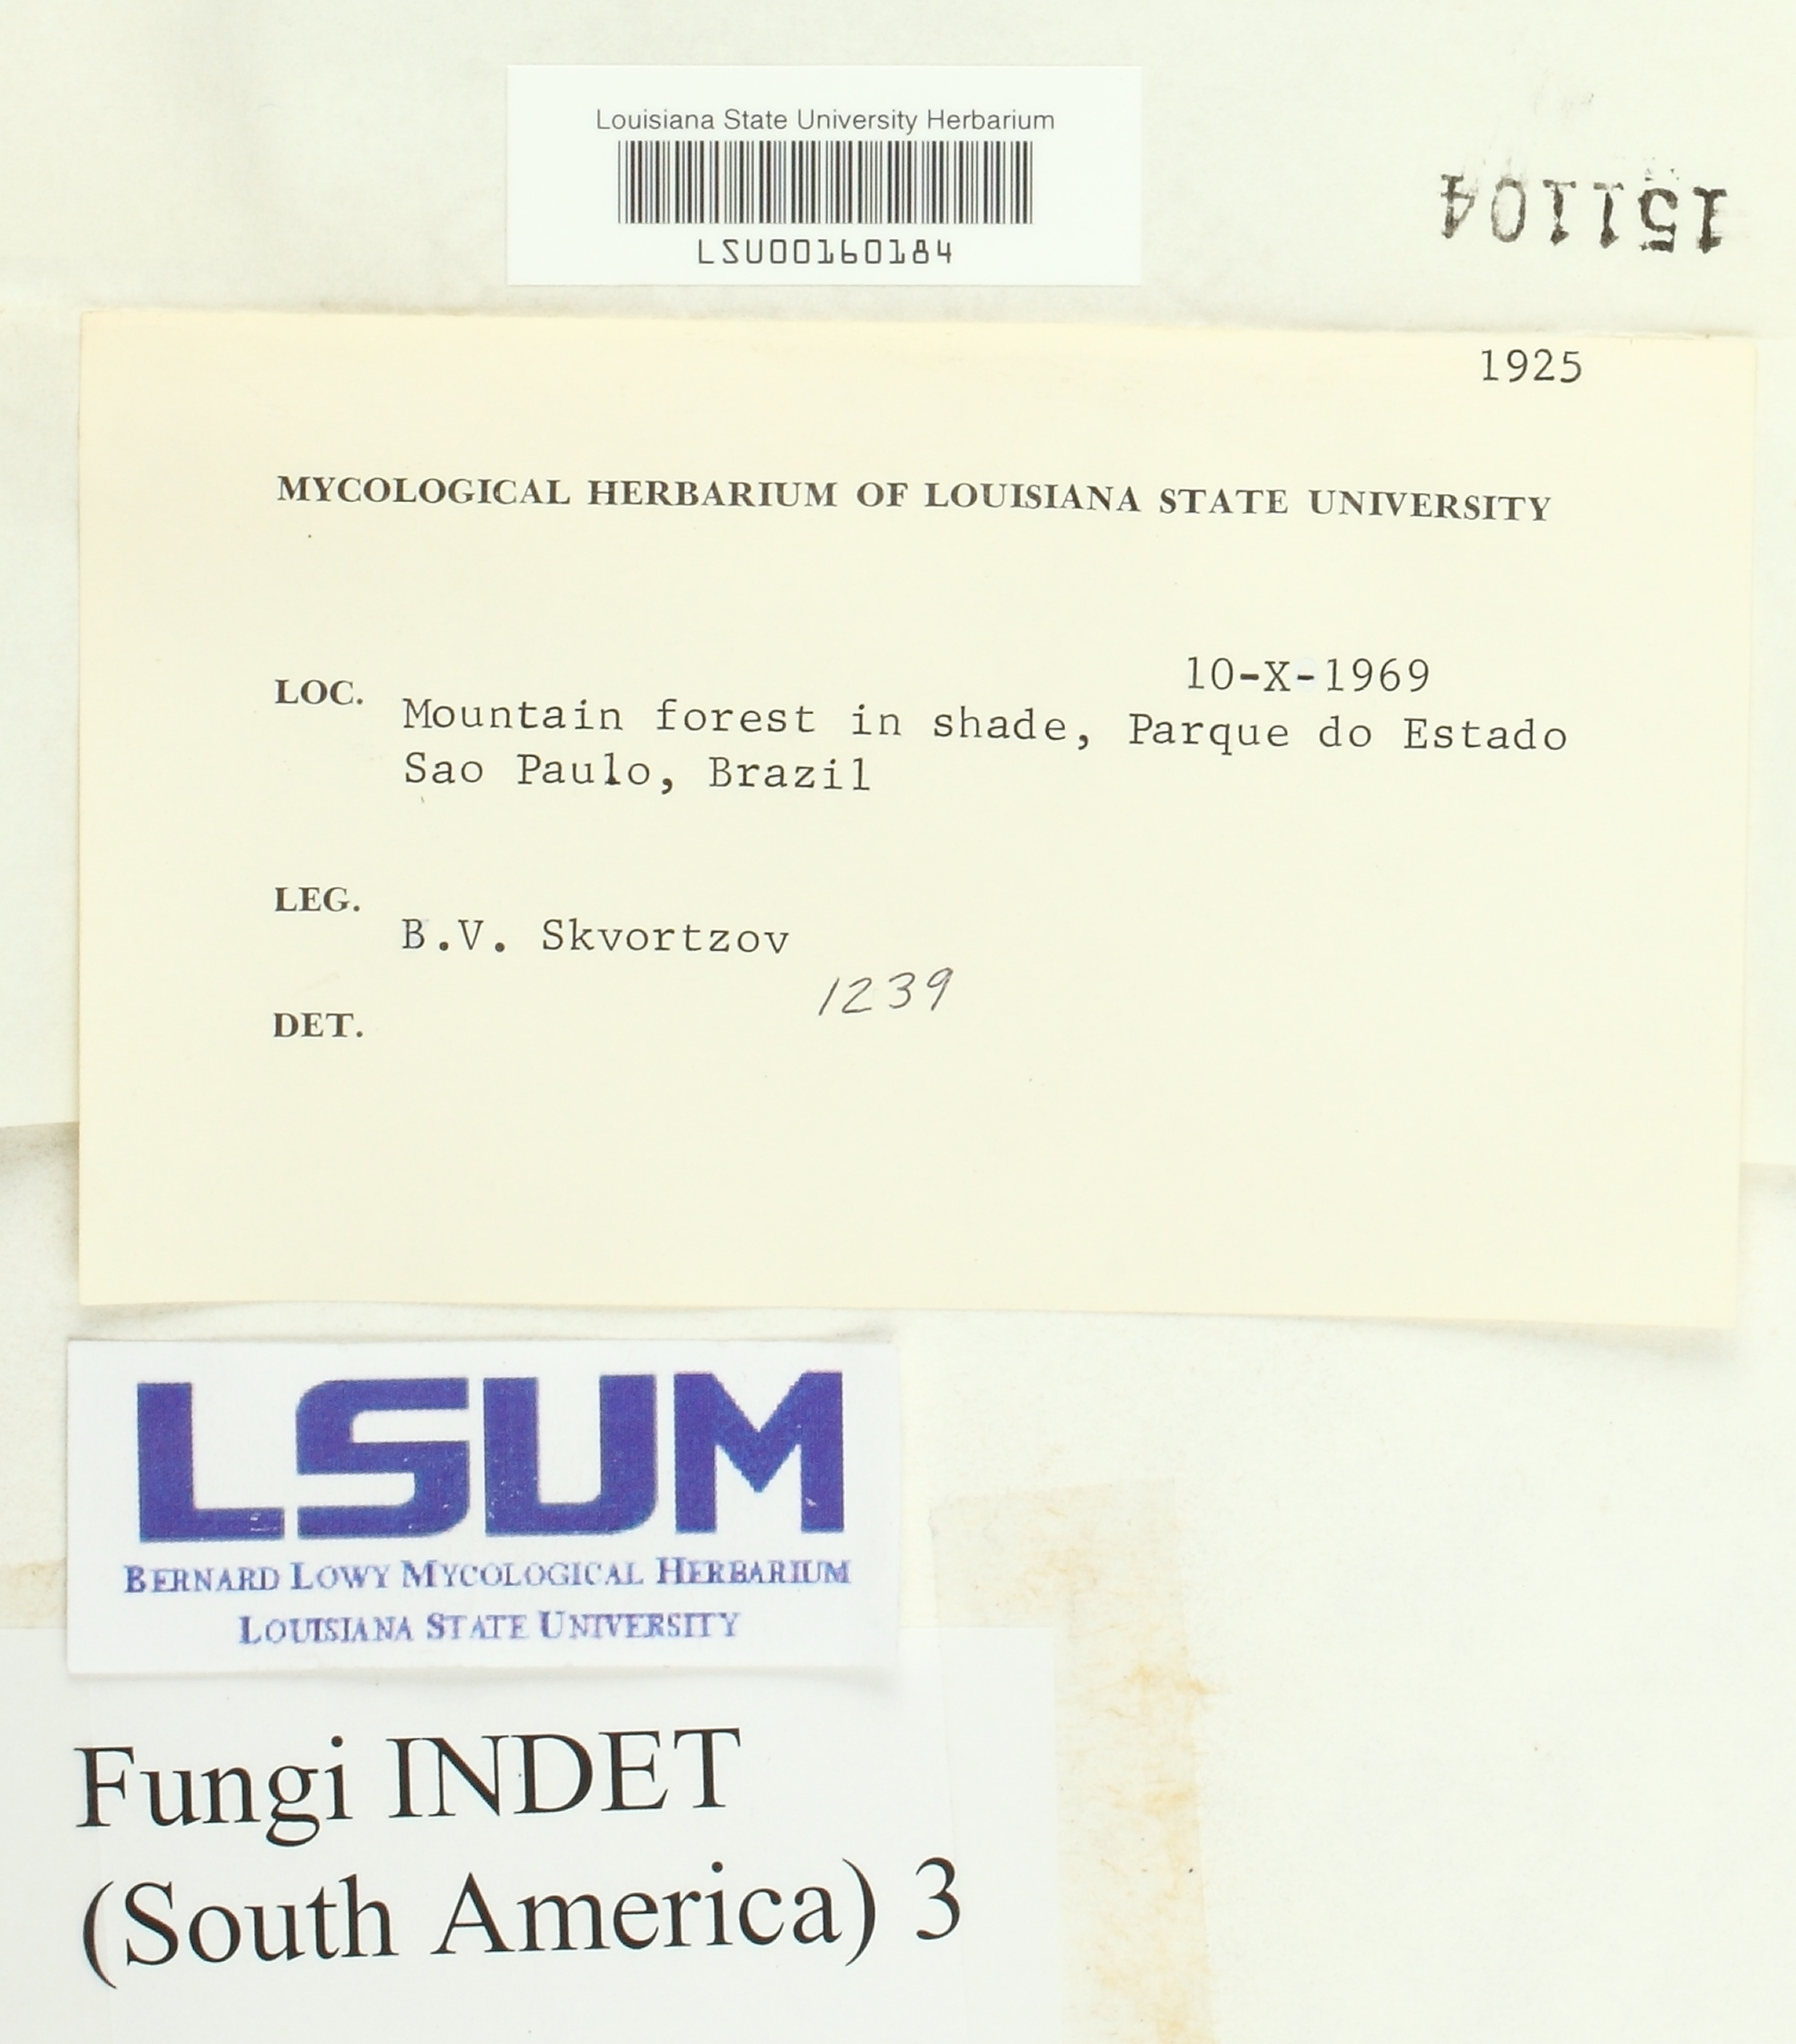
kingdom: Fungi
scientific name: Fungi
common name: Fungi
